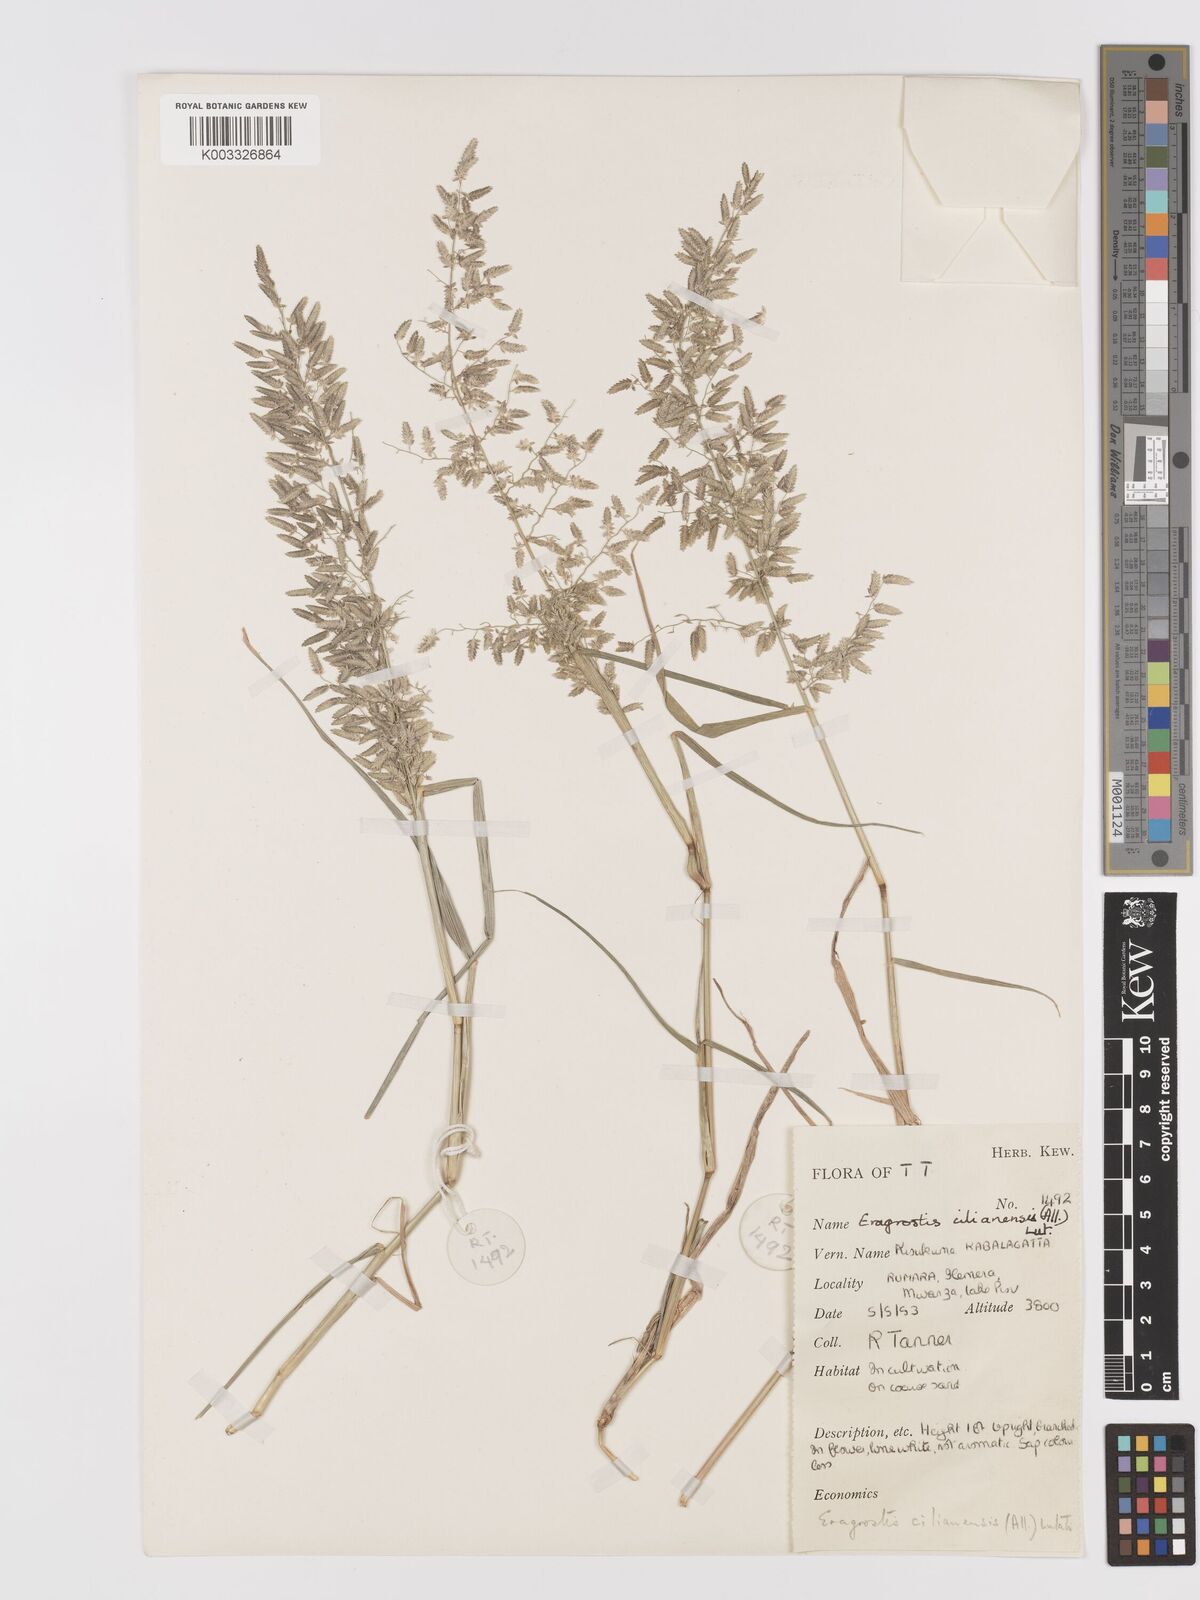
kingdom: Plantae
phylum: Tracheophyta
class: Liliopsida
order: Poales
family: Poaceae
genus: Eragrostis
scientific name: Eragrostis cilianensis
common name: Stinkgrass
